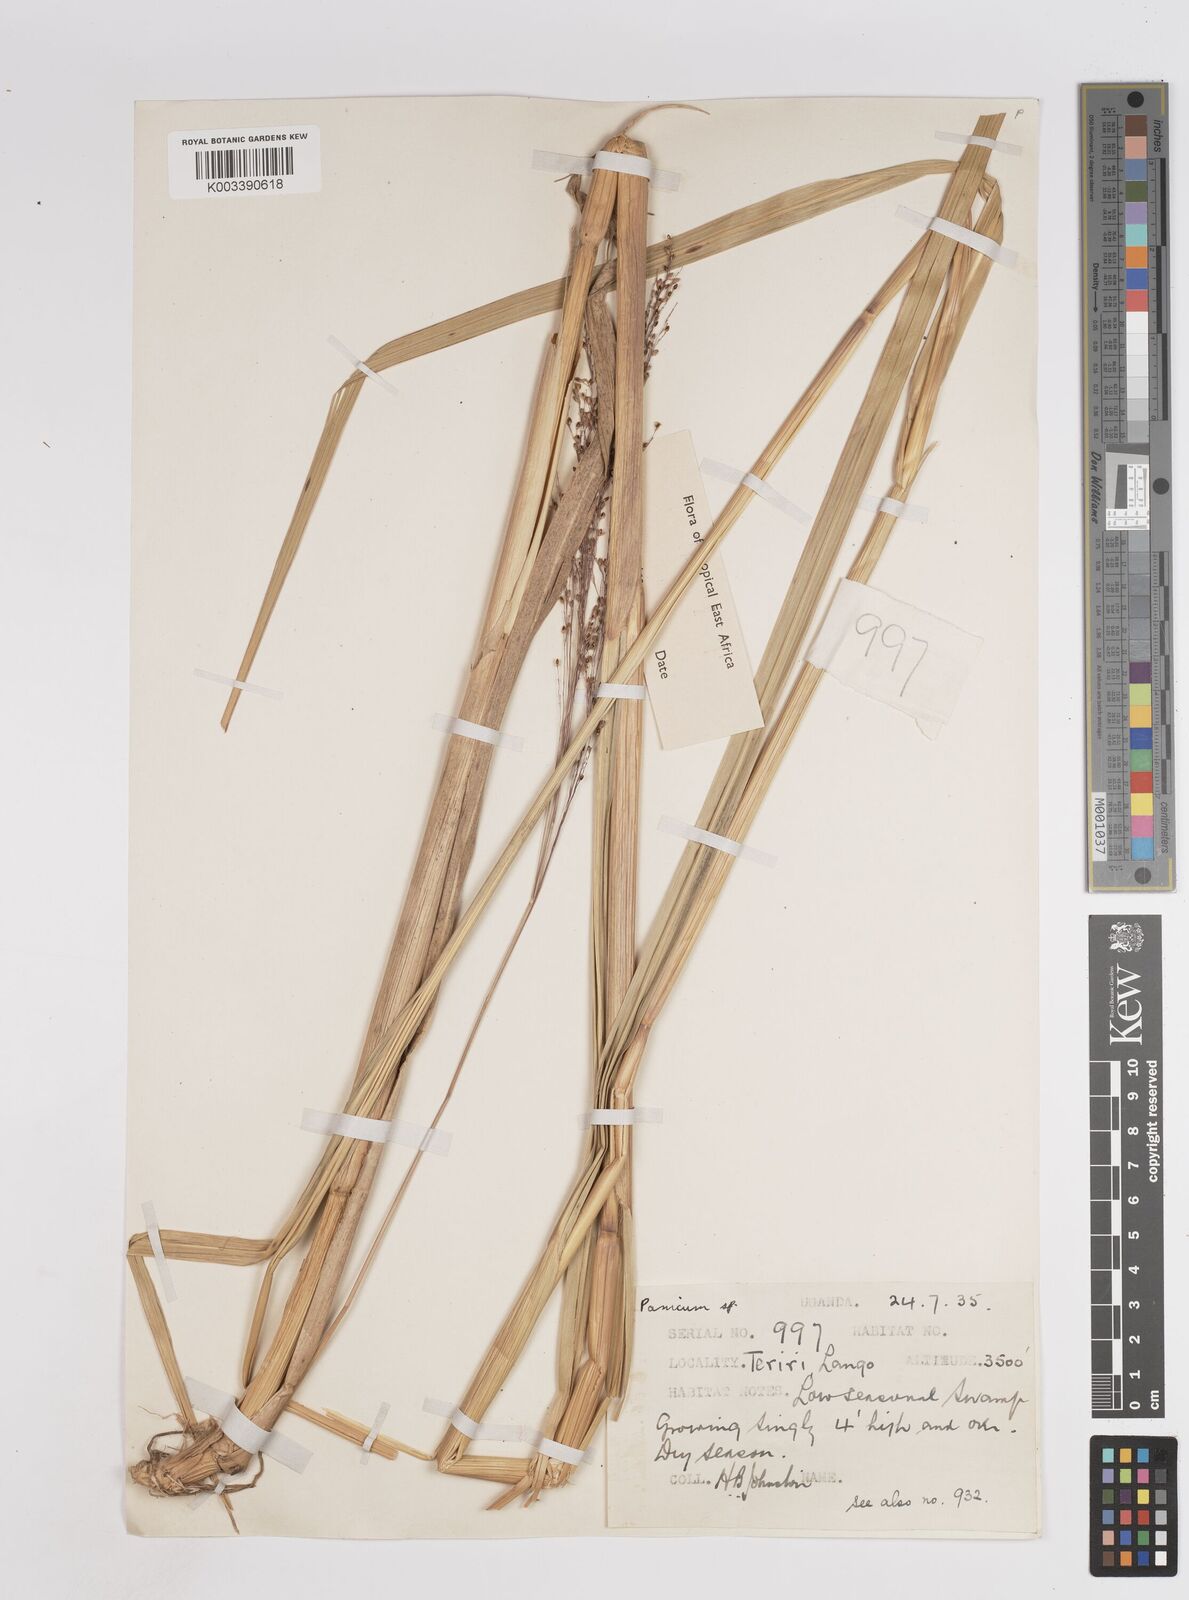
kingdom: Plantae
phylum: Tracheophyta
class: Liliopsida
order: Poales
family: Poaceae
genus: Panicum
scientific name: Panicum carneovaginatum
